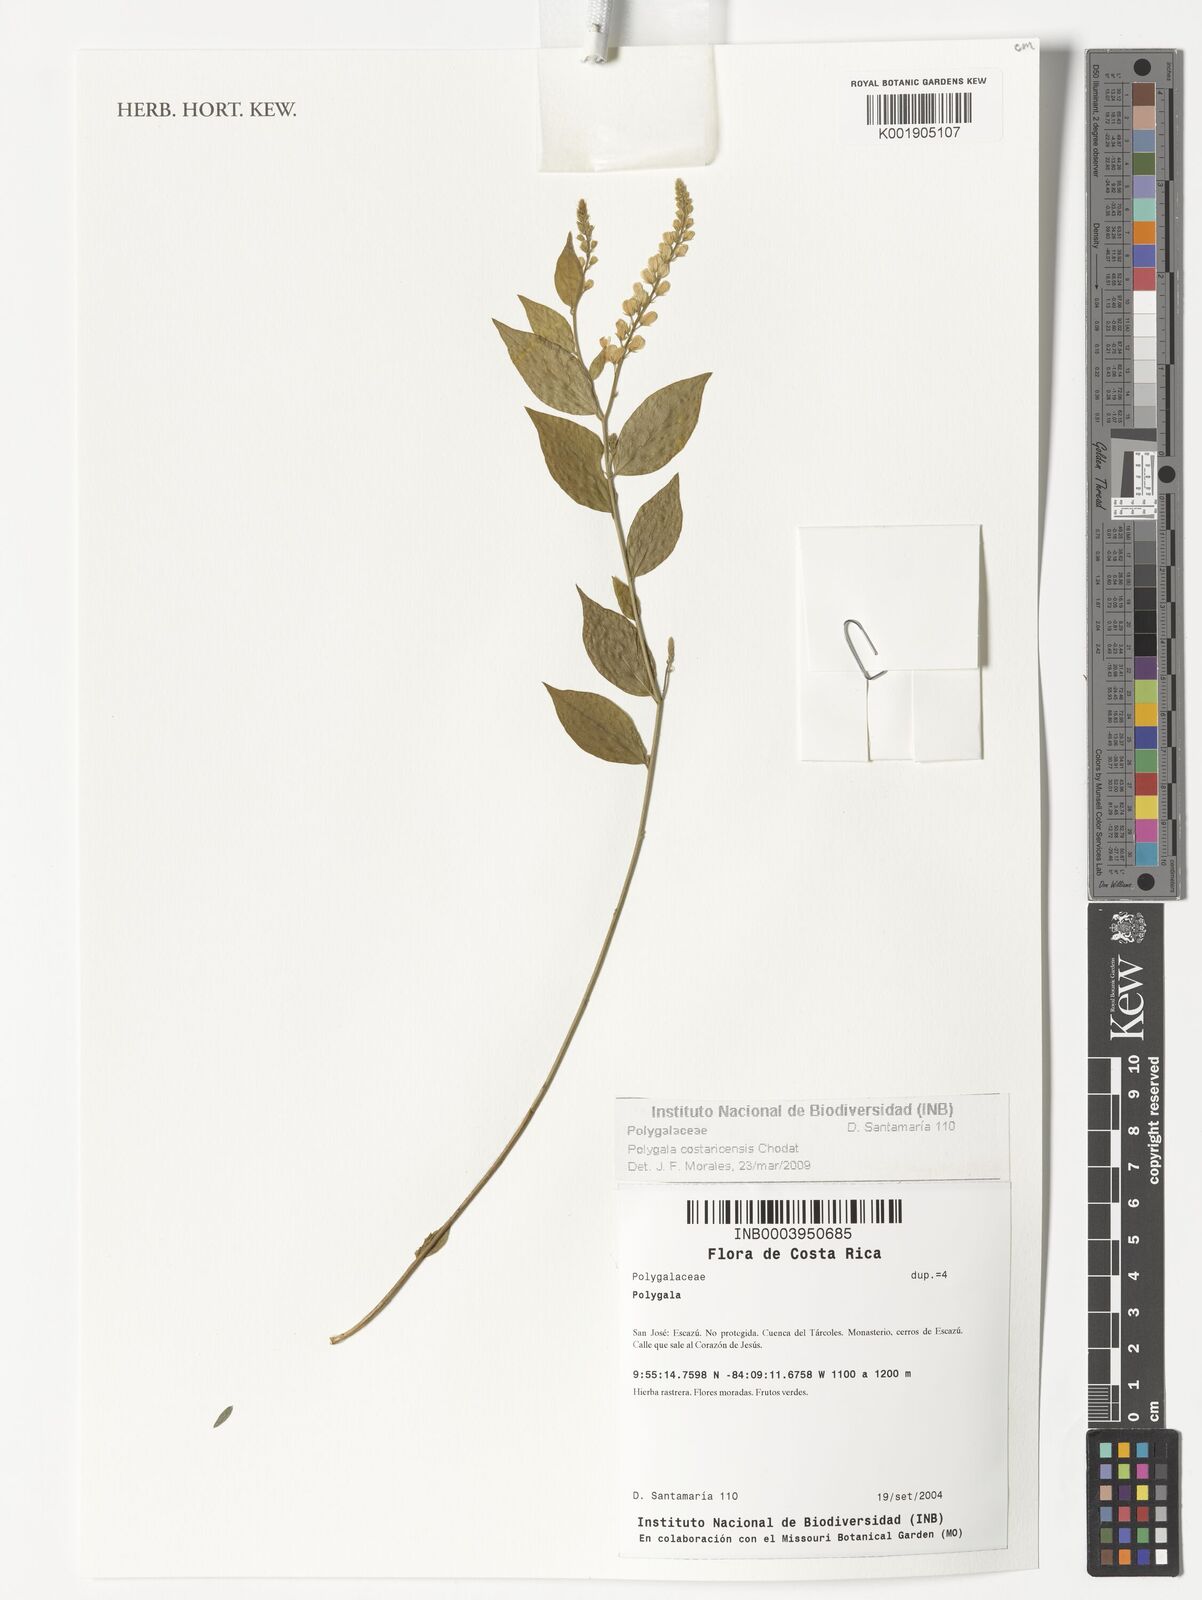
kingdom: Plantae
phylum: Tracheophyta
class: Magnoliopsida
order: Fabales
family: Polygalaceae
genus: Hebecarpa
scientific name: Hebecarpa costaricensis
